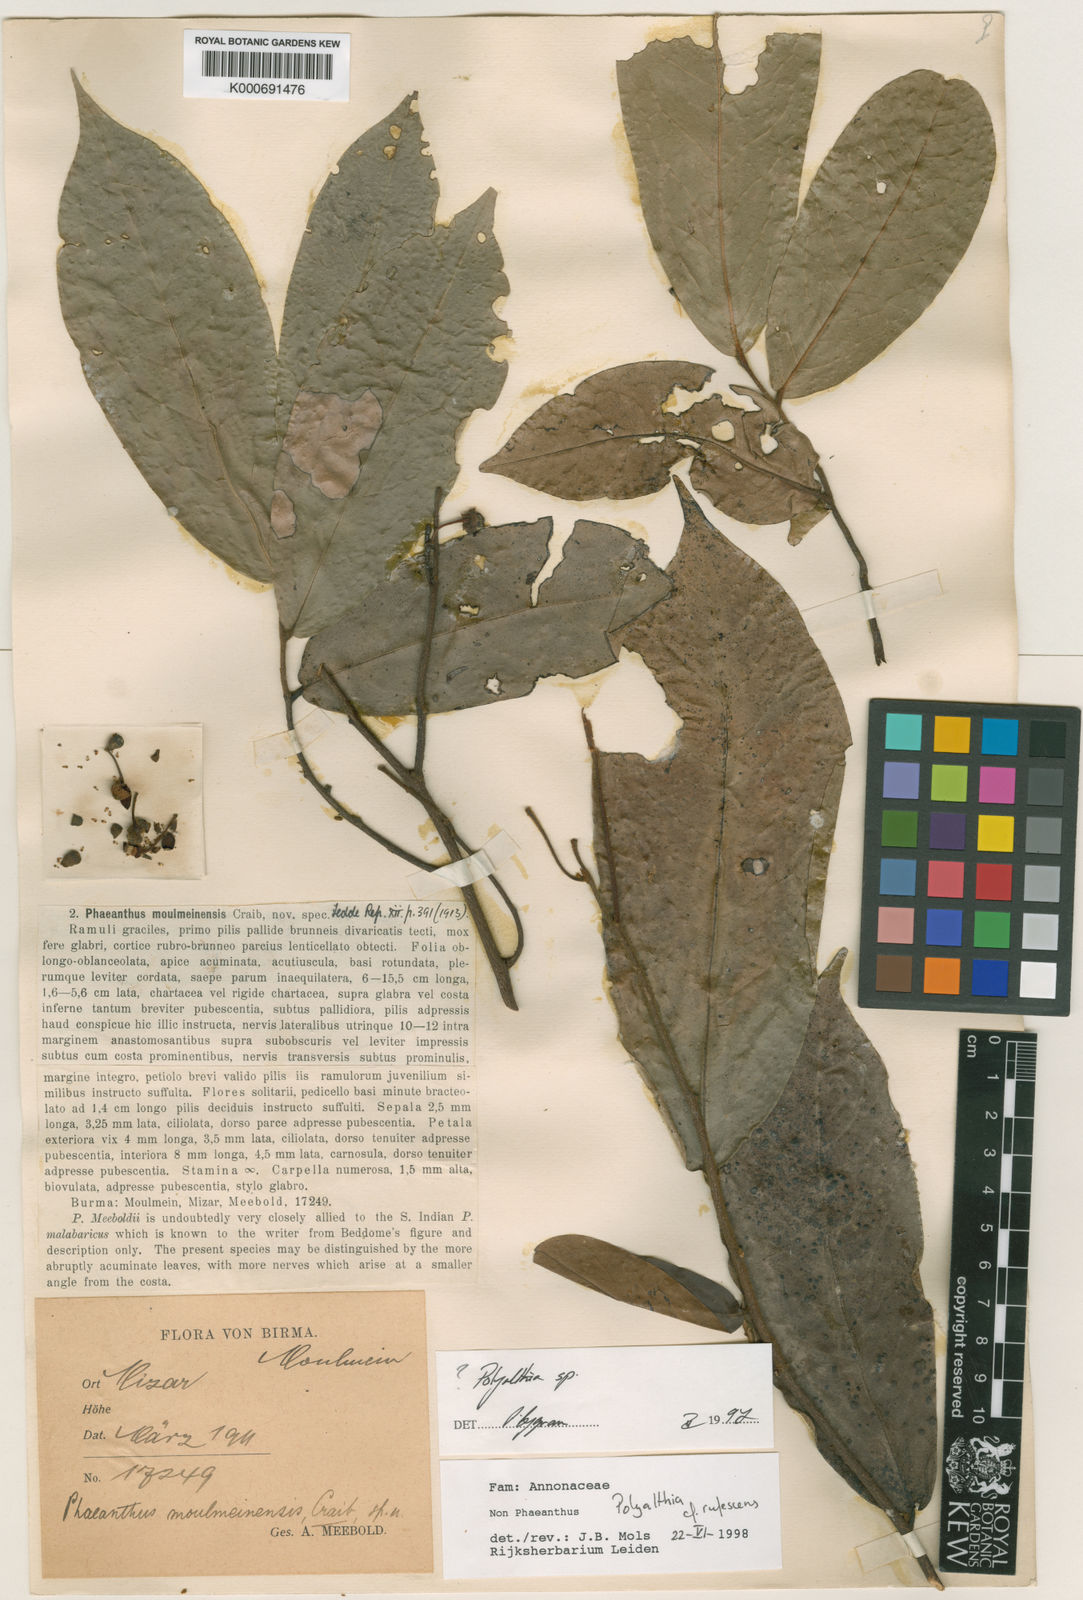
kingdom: Plantae
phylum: Tracheophyta
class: Magnoliopsida
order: Magnoliales
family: Annonaceae
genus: Polyalthia
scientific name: Polyalthia rufescens
